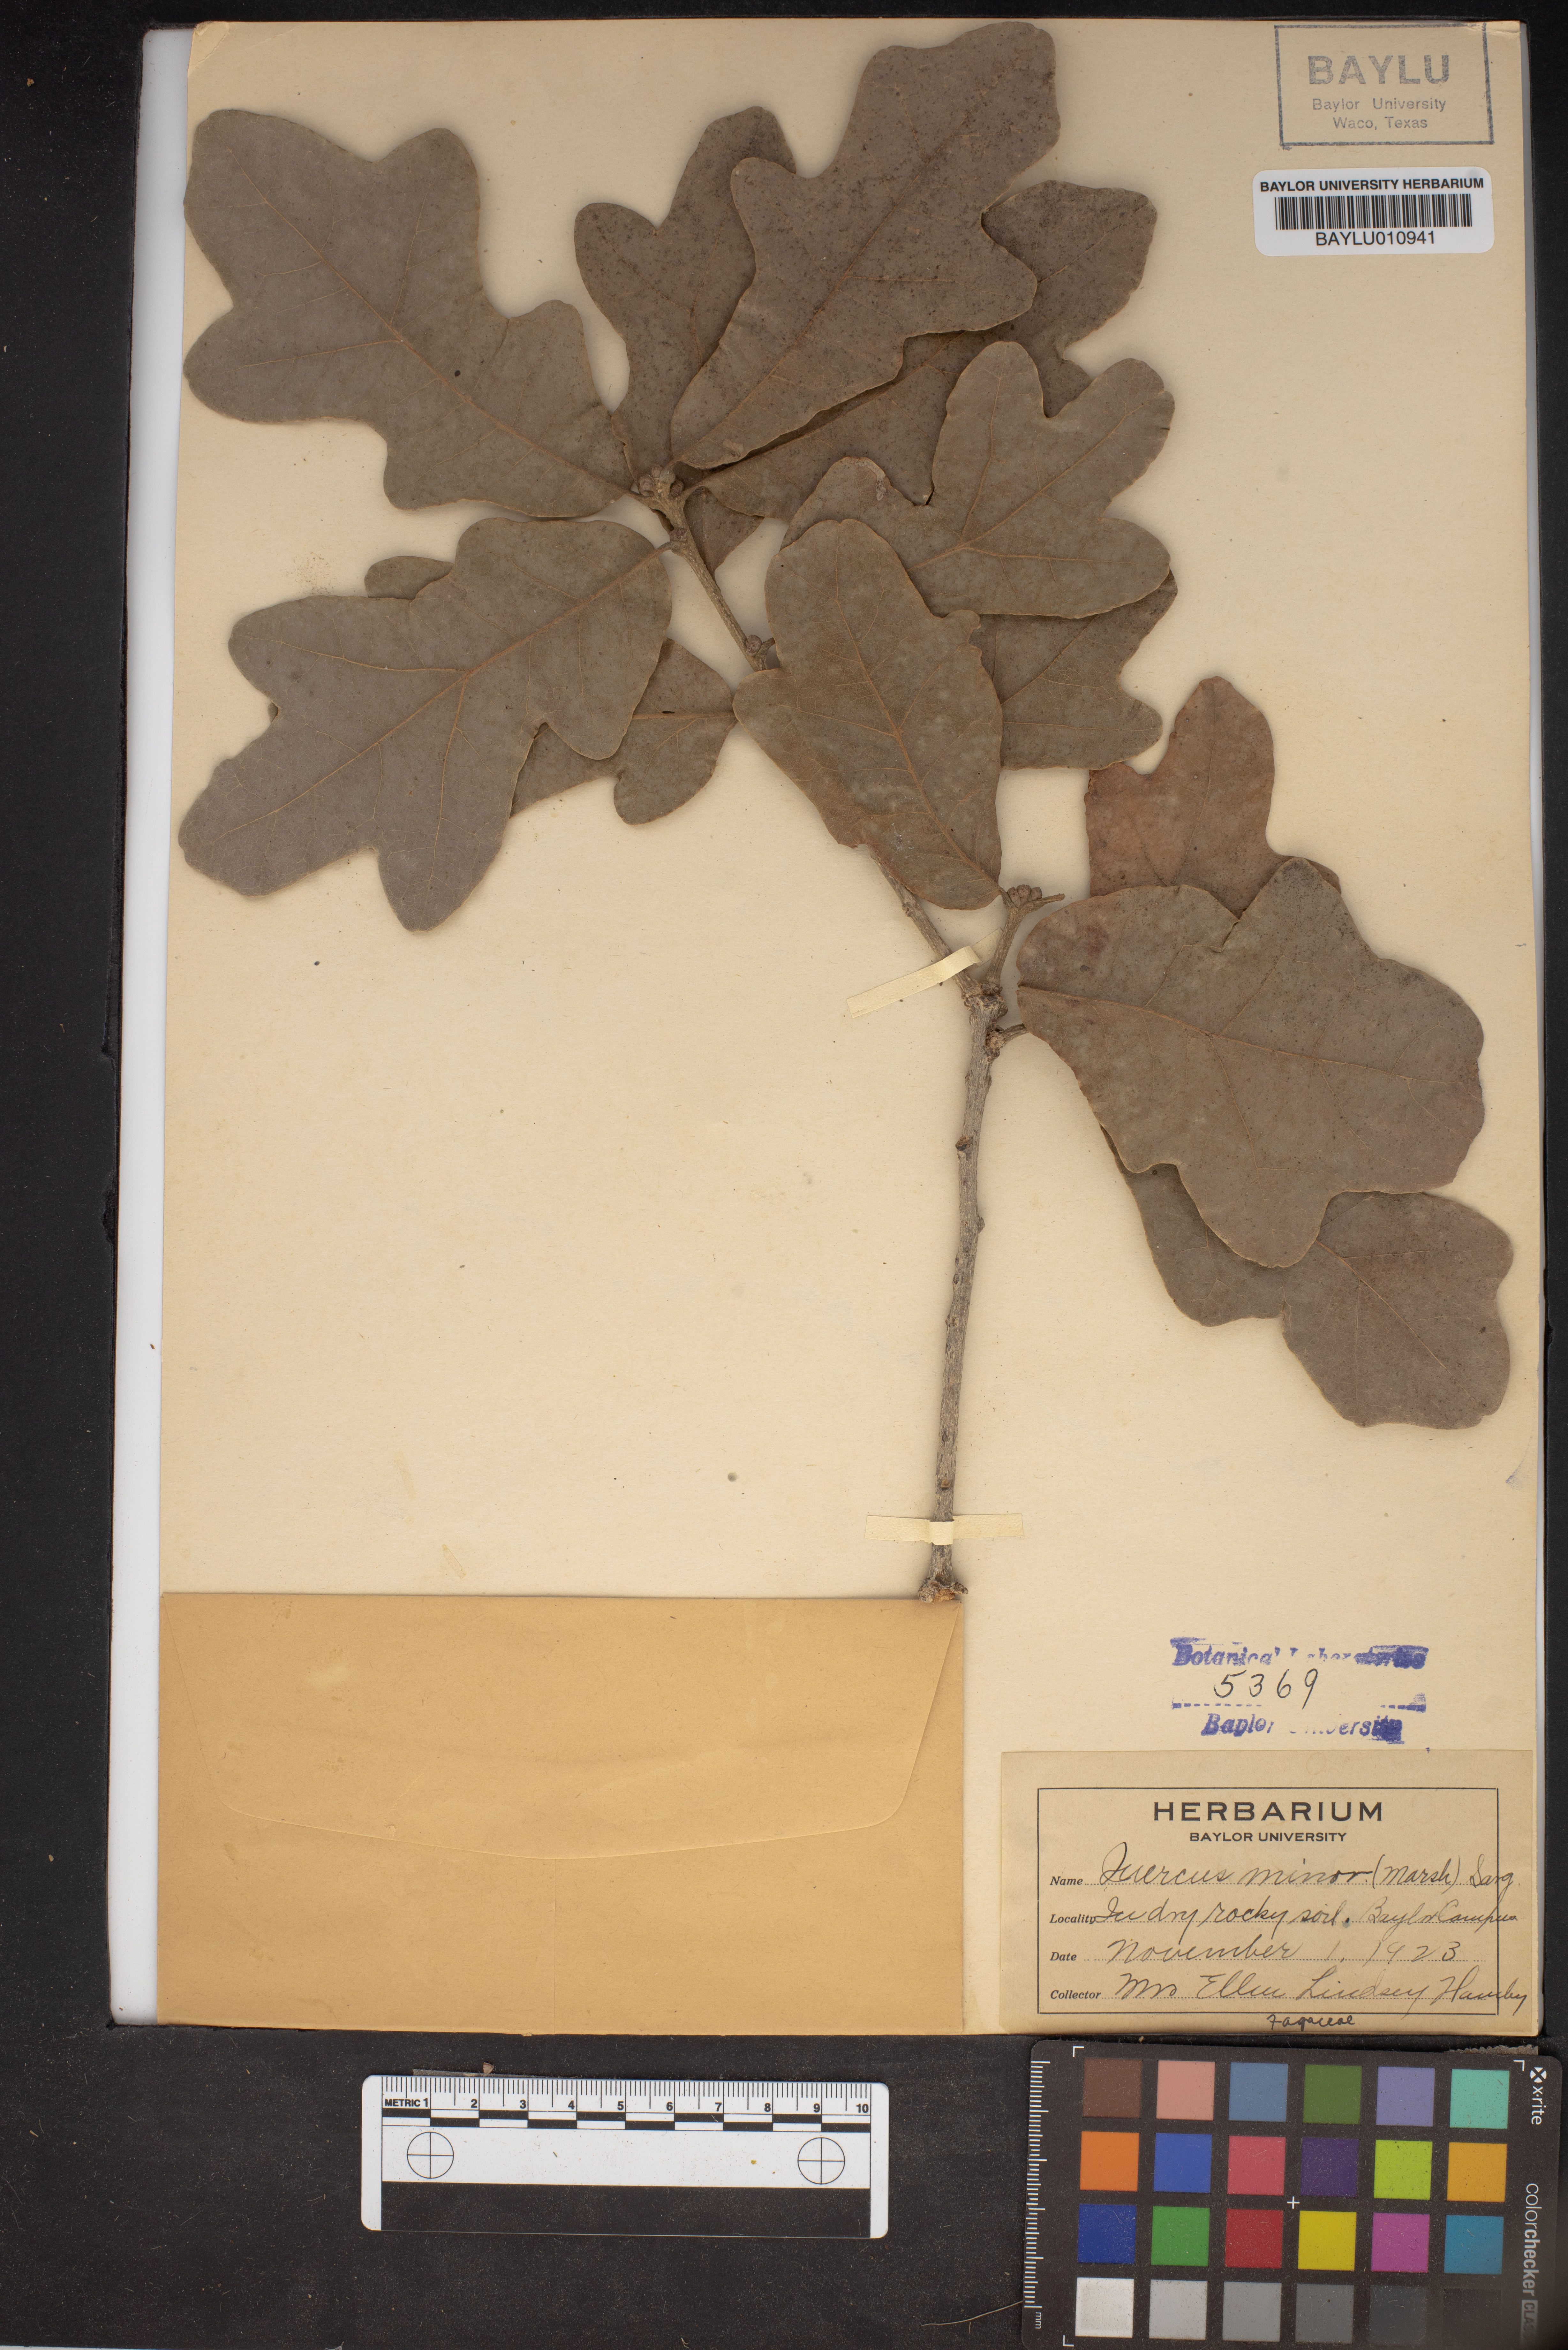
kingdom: Plantae
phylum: Tracheophyta
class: Magnoliopsida
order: Fagales
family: Fagaceae
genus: Quercus
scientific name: Quercus stellata
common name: Post oak
